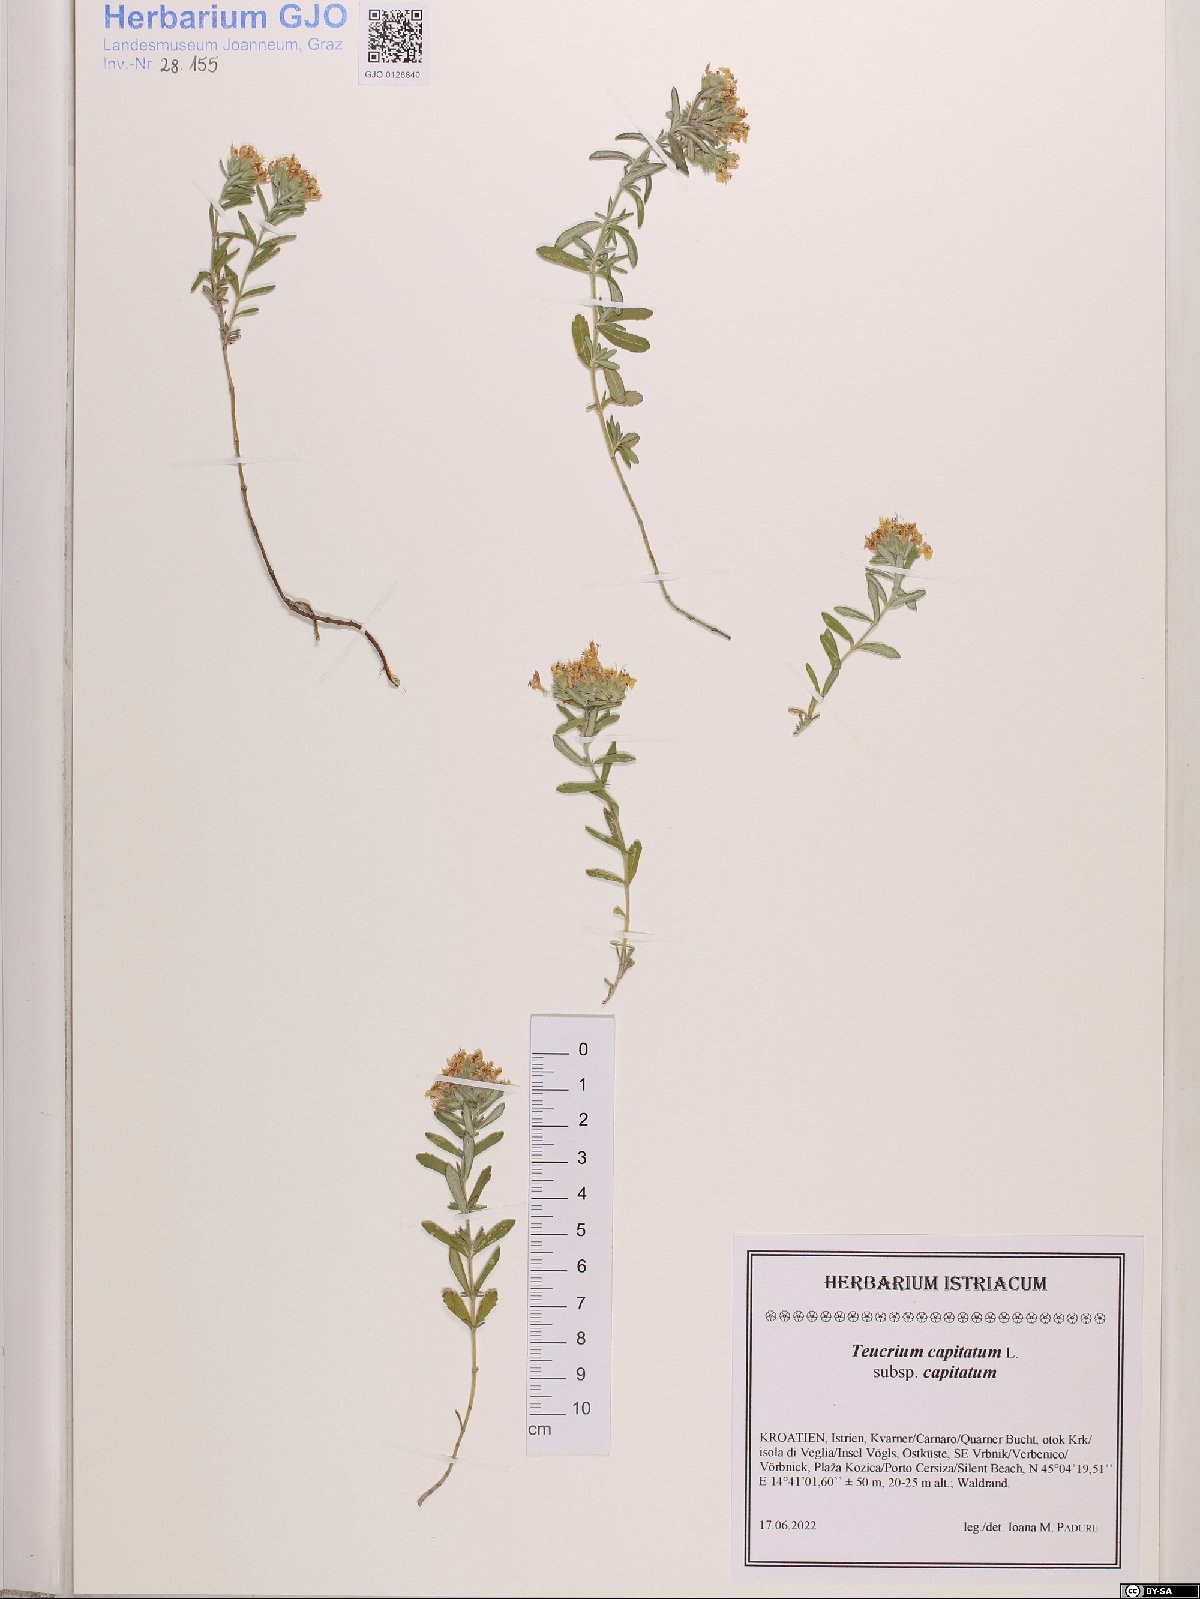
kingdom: Plantae
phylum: Tracheophyta
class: Magnoliopsida
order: Lamiales
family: Lamiaceae
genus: Teucrium
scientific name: Teucrium capitatum
